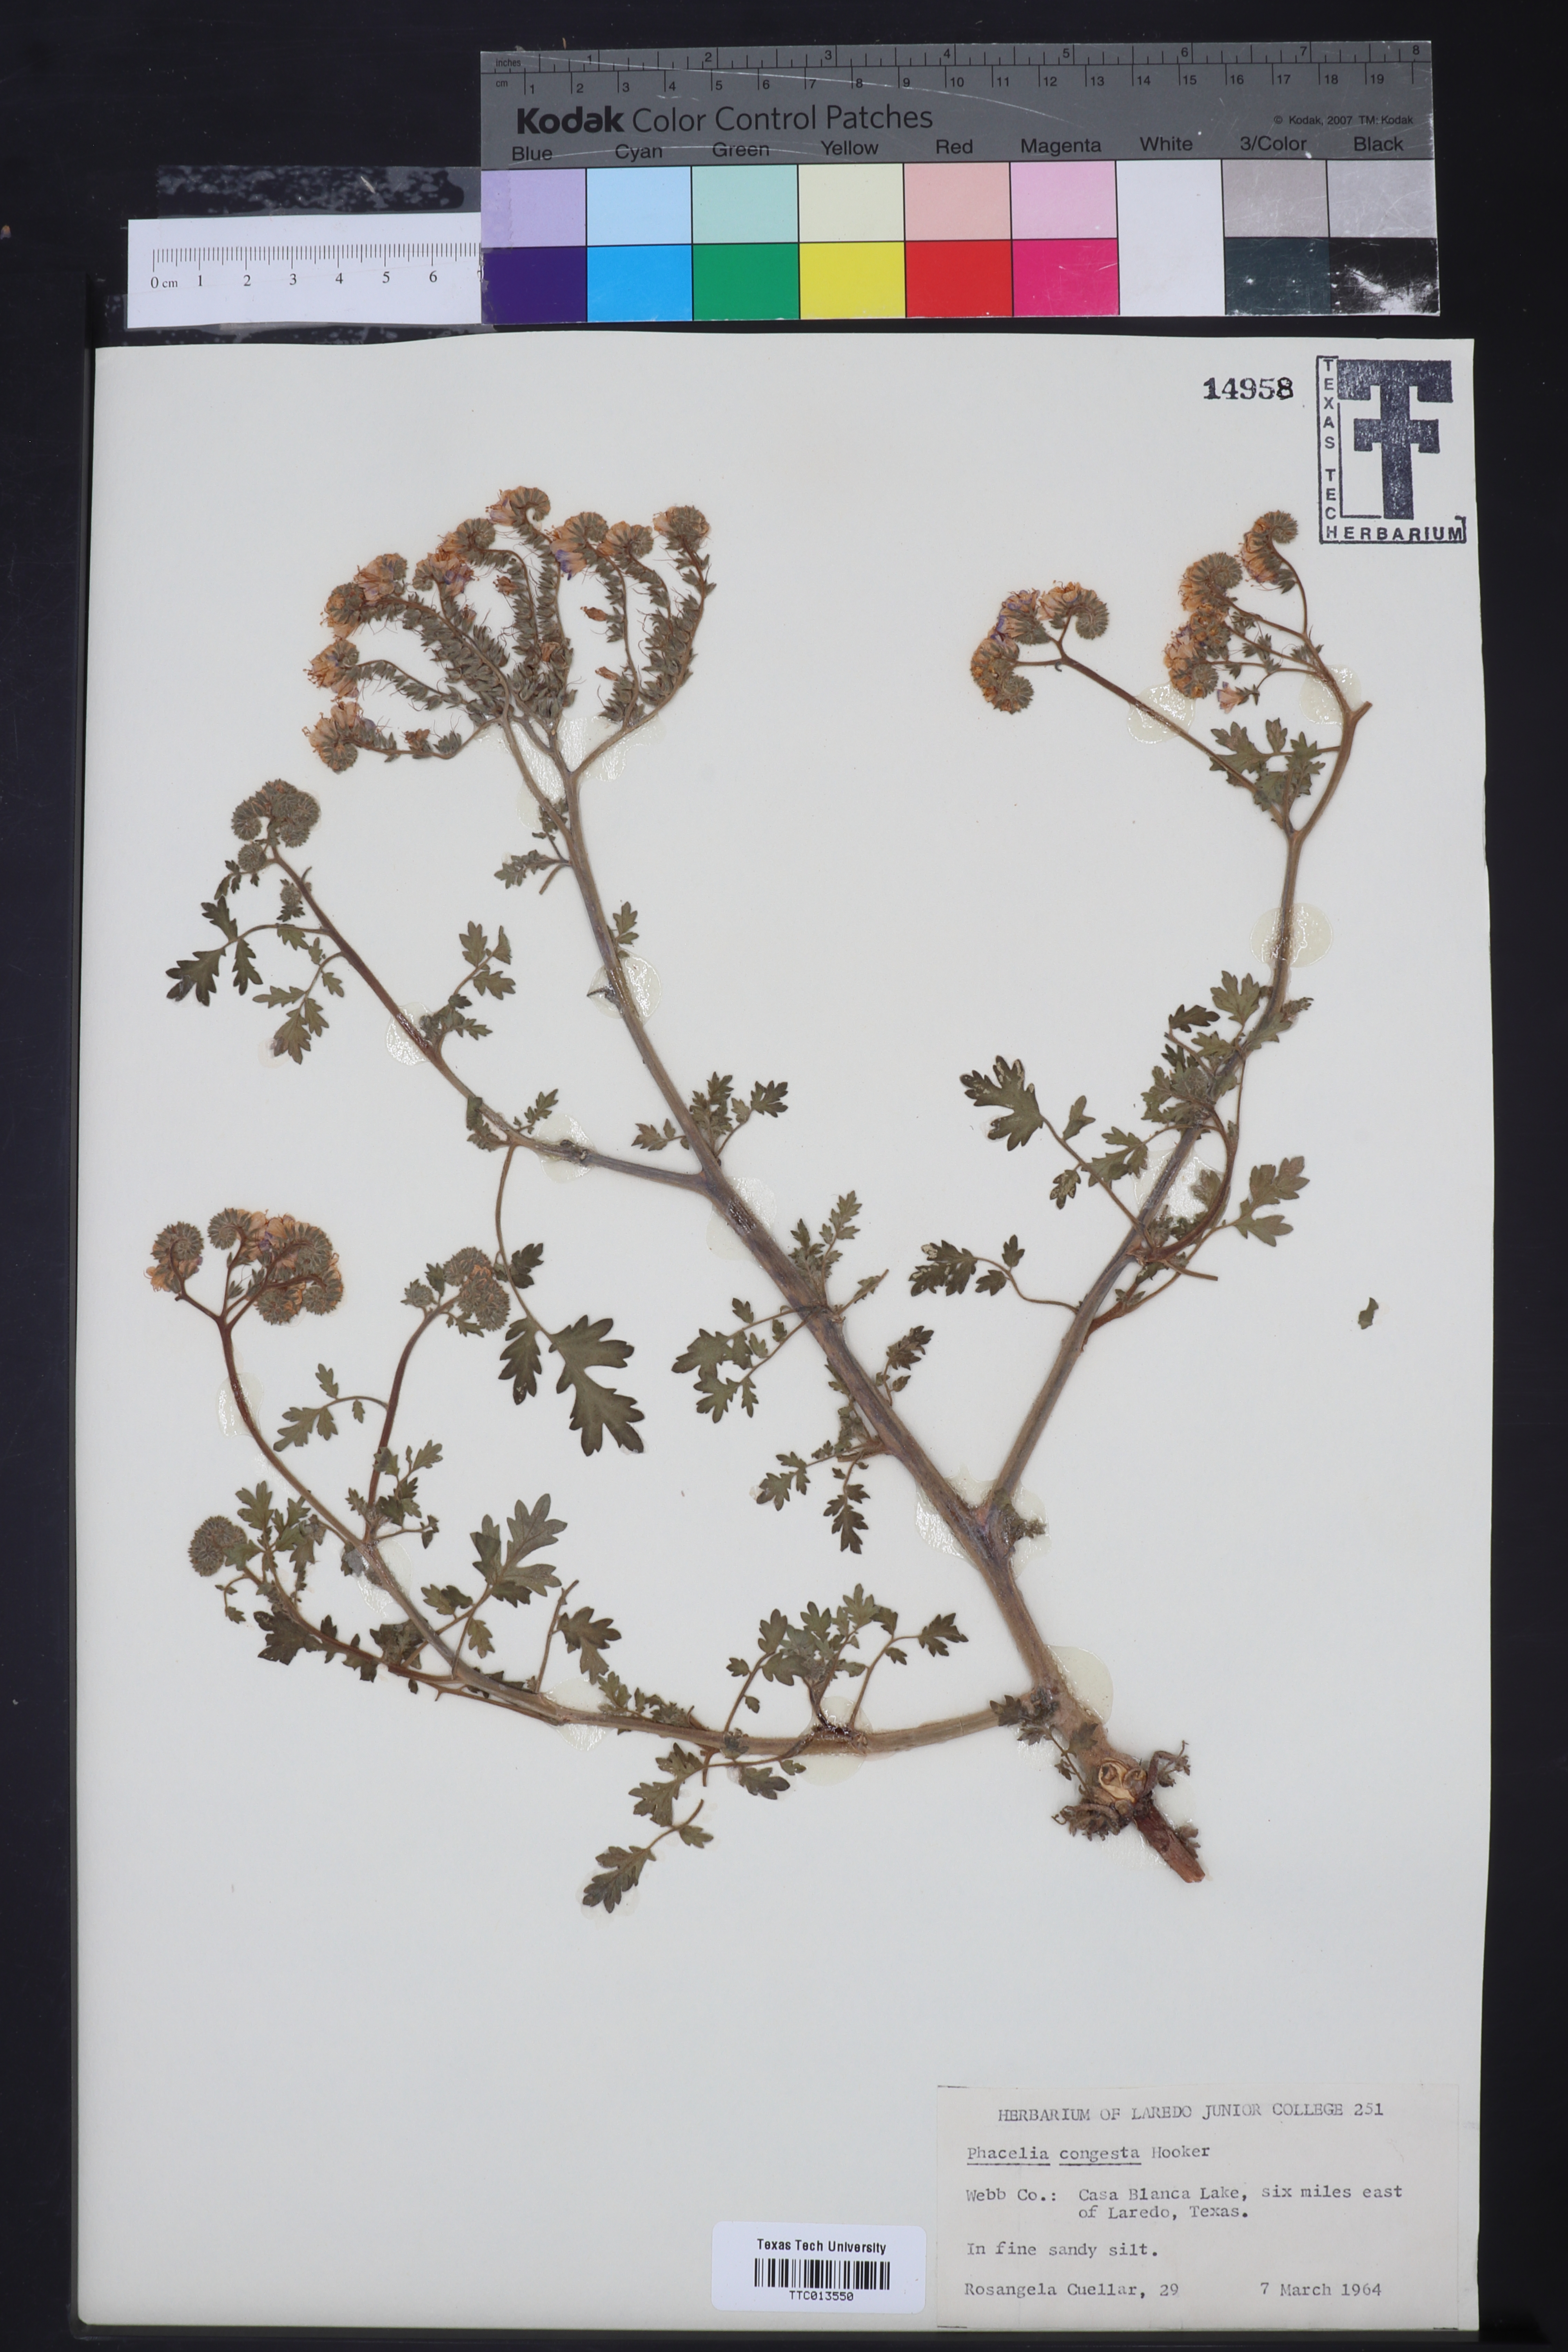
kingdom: Plantae
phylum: Tracheophyta
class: Magnoliopsida
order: Boraginales
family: Hydrophyllaceae
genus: Phacelia
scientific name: Phacelia congesta
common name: Blue curls
